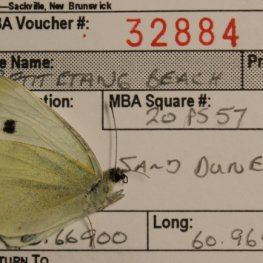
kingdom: Animalia
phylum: Arthropoda
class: Insecta
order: Lepidoptera
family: Pieridae
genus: Pieris
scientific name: Pieris rapae
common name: Cabbage White
